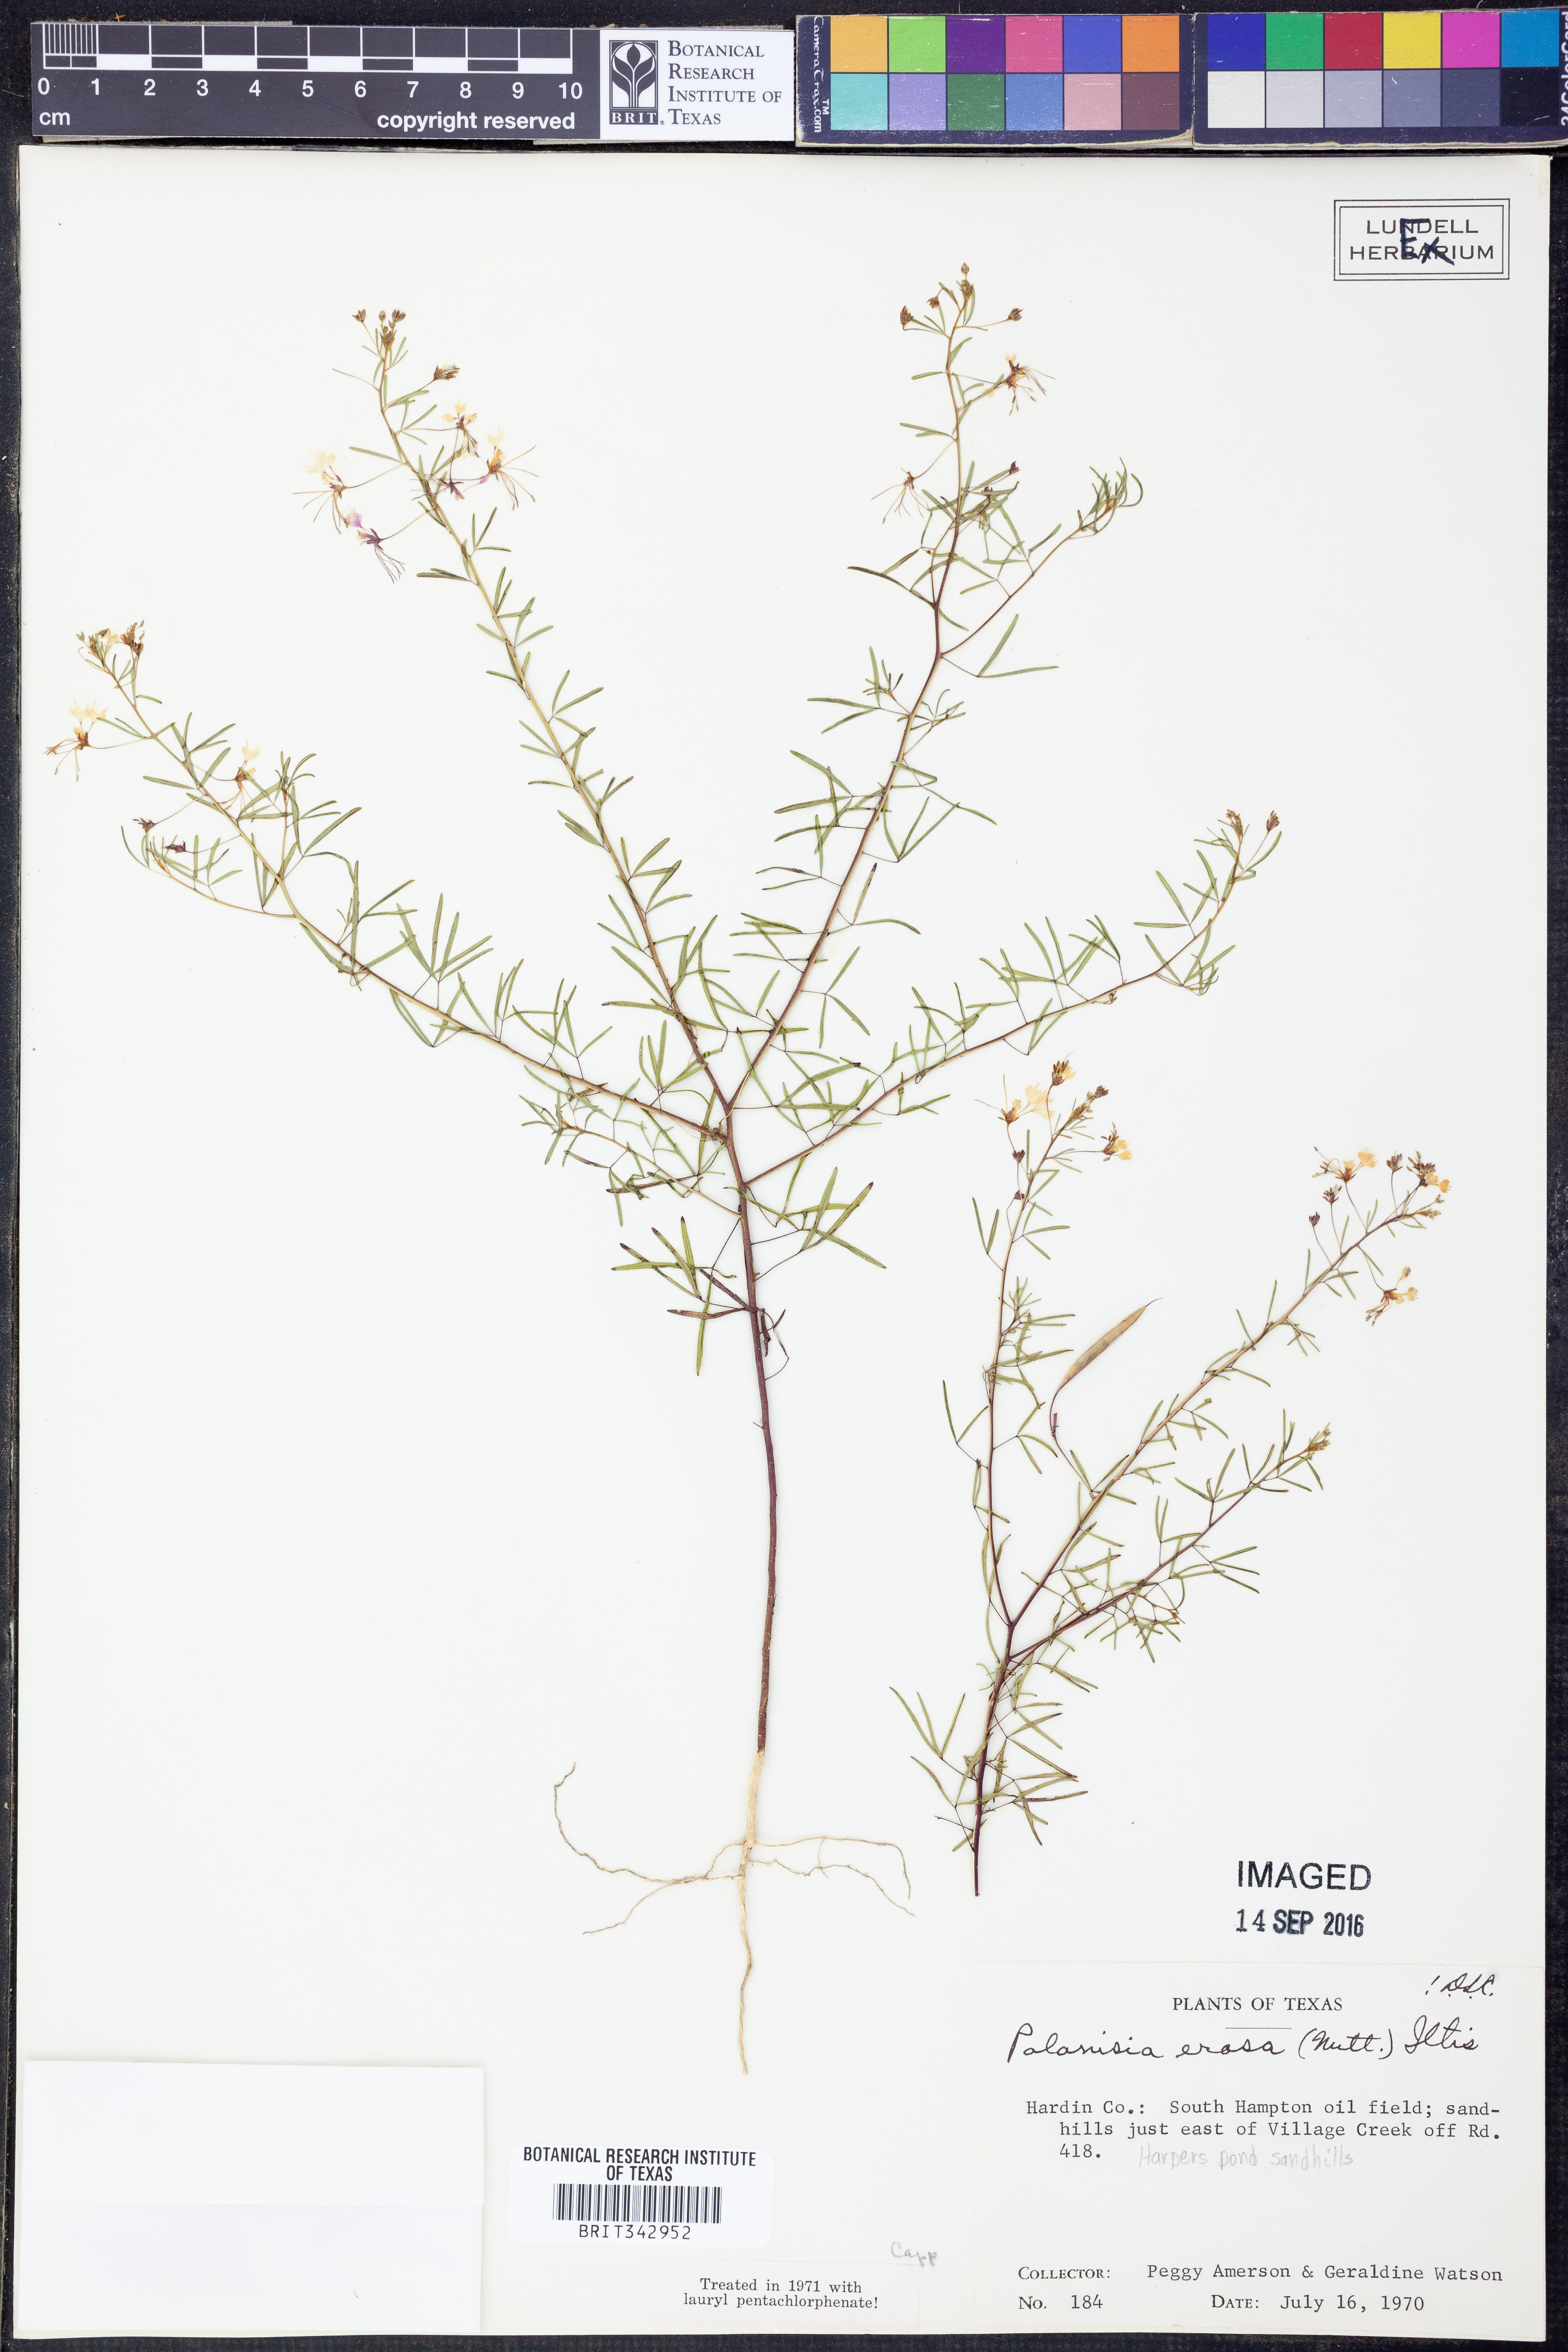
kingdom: Plantae
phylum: Tracheophyta
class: Magnoliopsida
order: Brassicales
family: Cleomaceae
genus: Polanisia
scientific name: Polanisia erosa
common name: Large clammyweed
